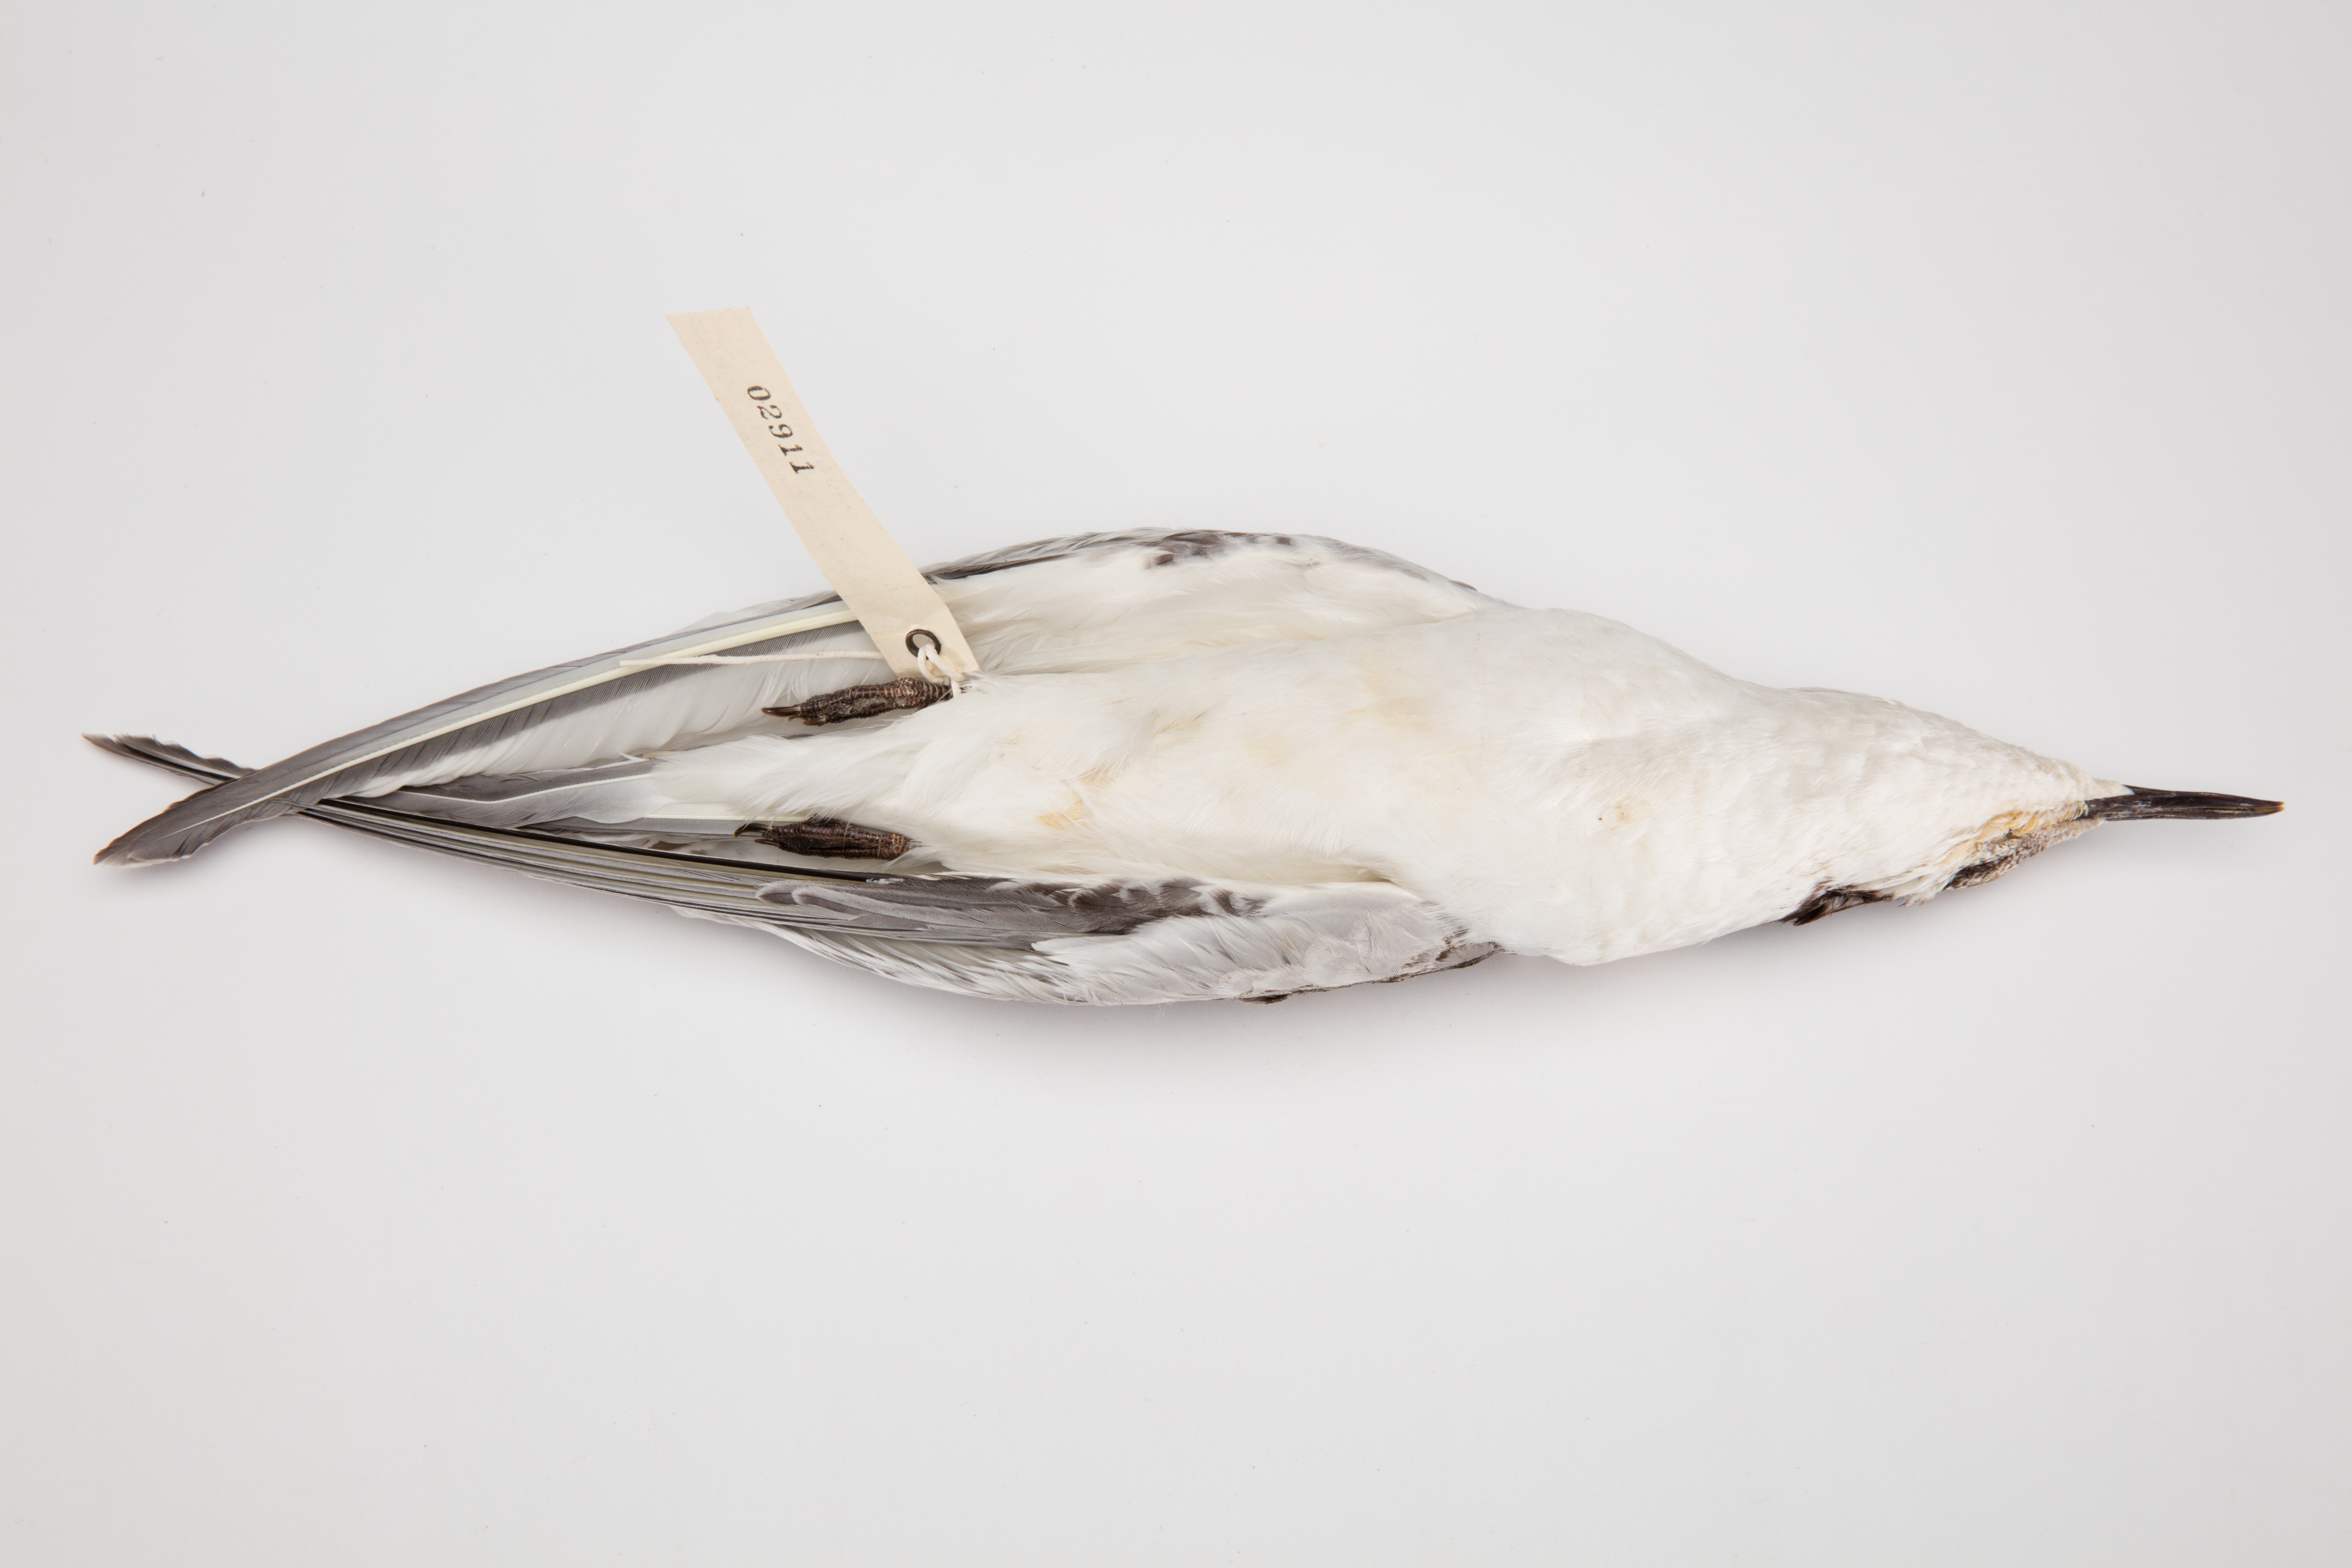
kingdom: Animalia
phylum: Chordata
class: Aves
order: Charadriiformes
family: Laridae
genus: Sterna
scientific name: Sterna striata
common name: White-fronted tern
